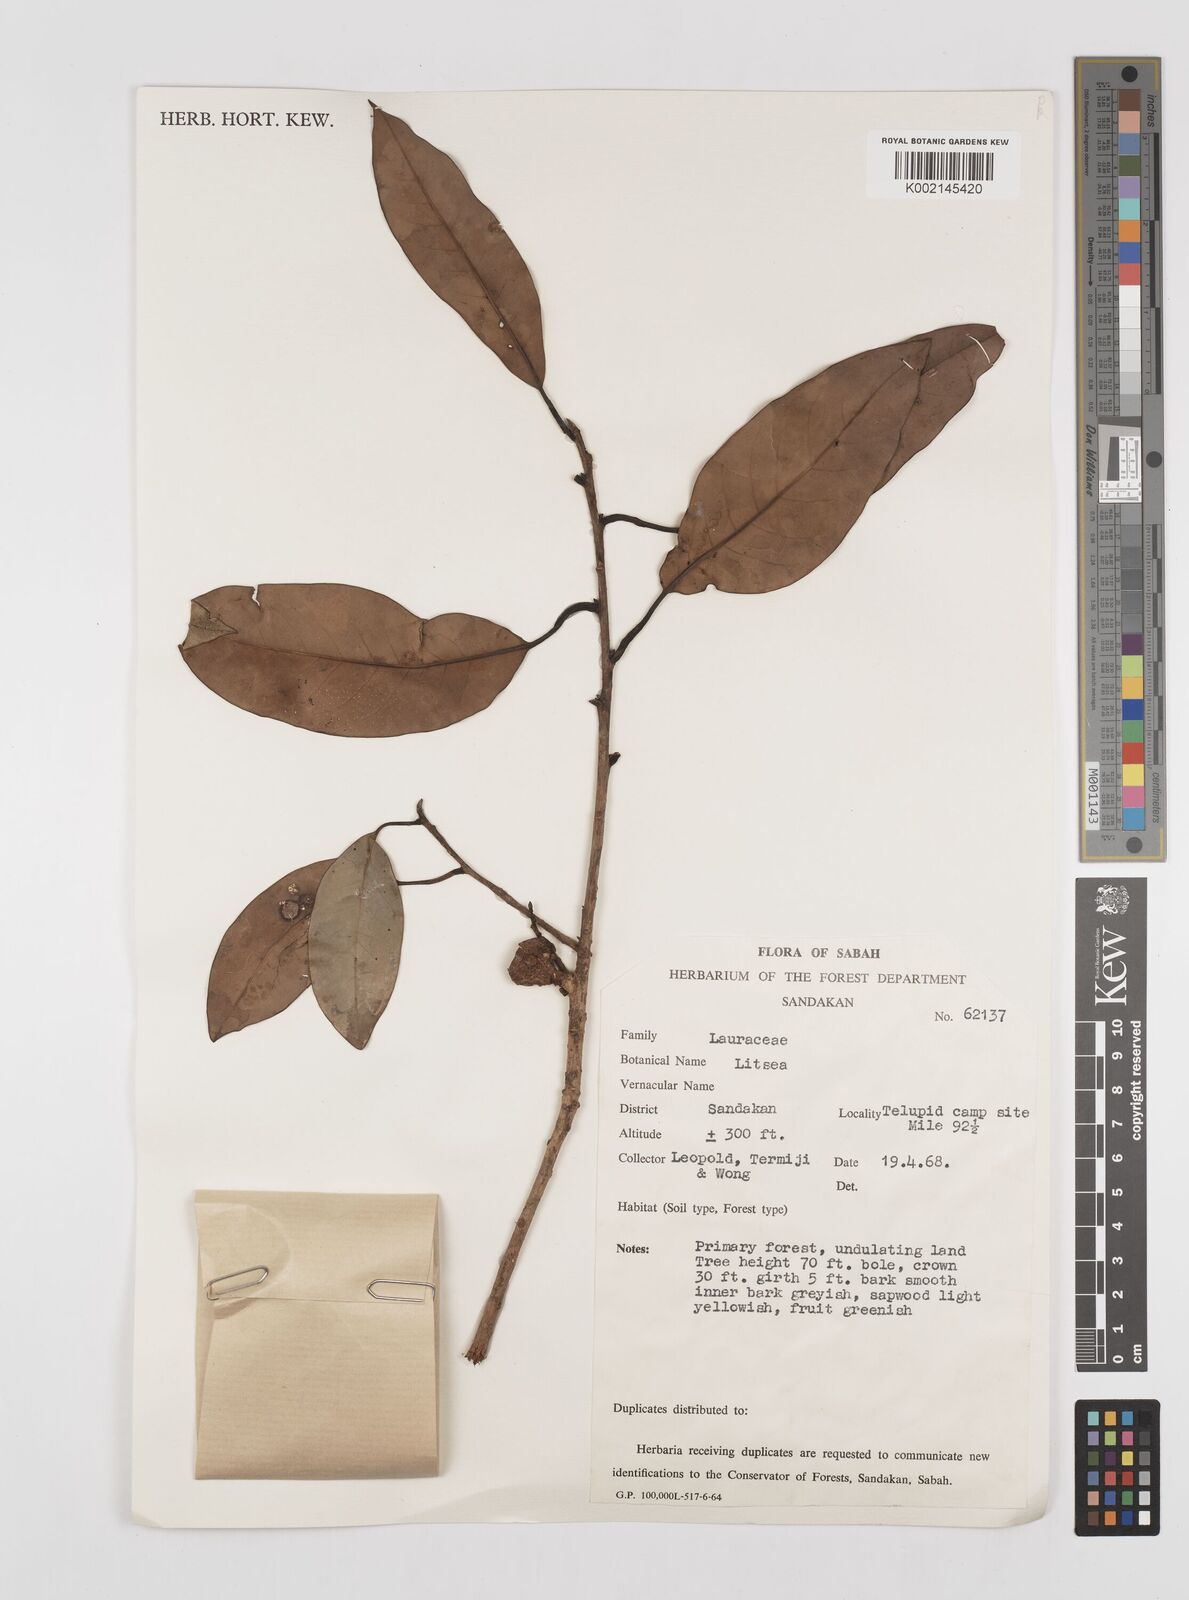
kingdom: Plantae
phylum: Tracheophyta
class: Magnoliopsida
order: Laurales
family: Lauraceae
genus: Litsea
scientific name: Litsea
